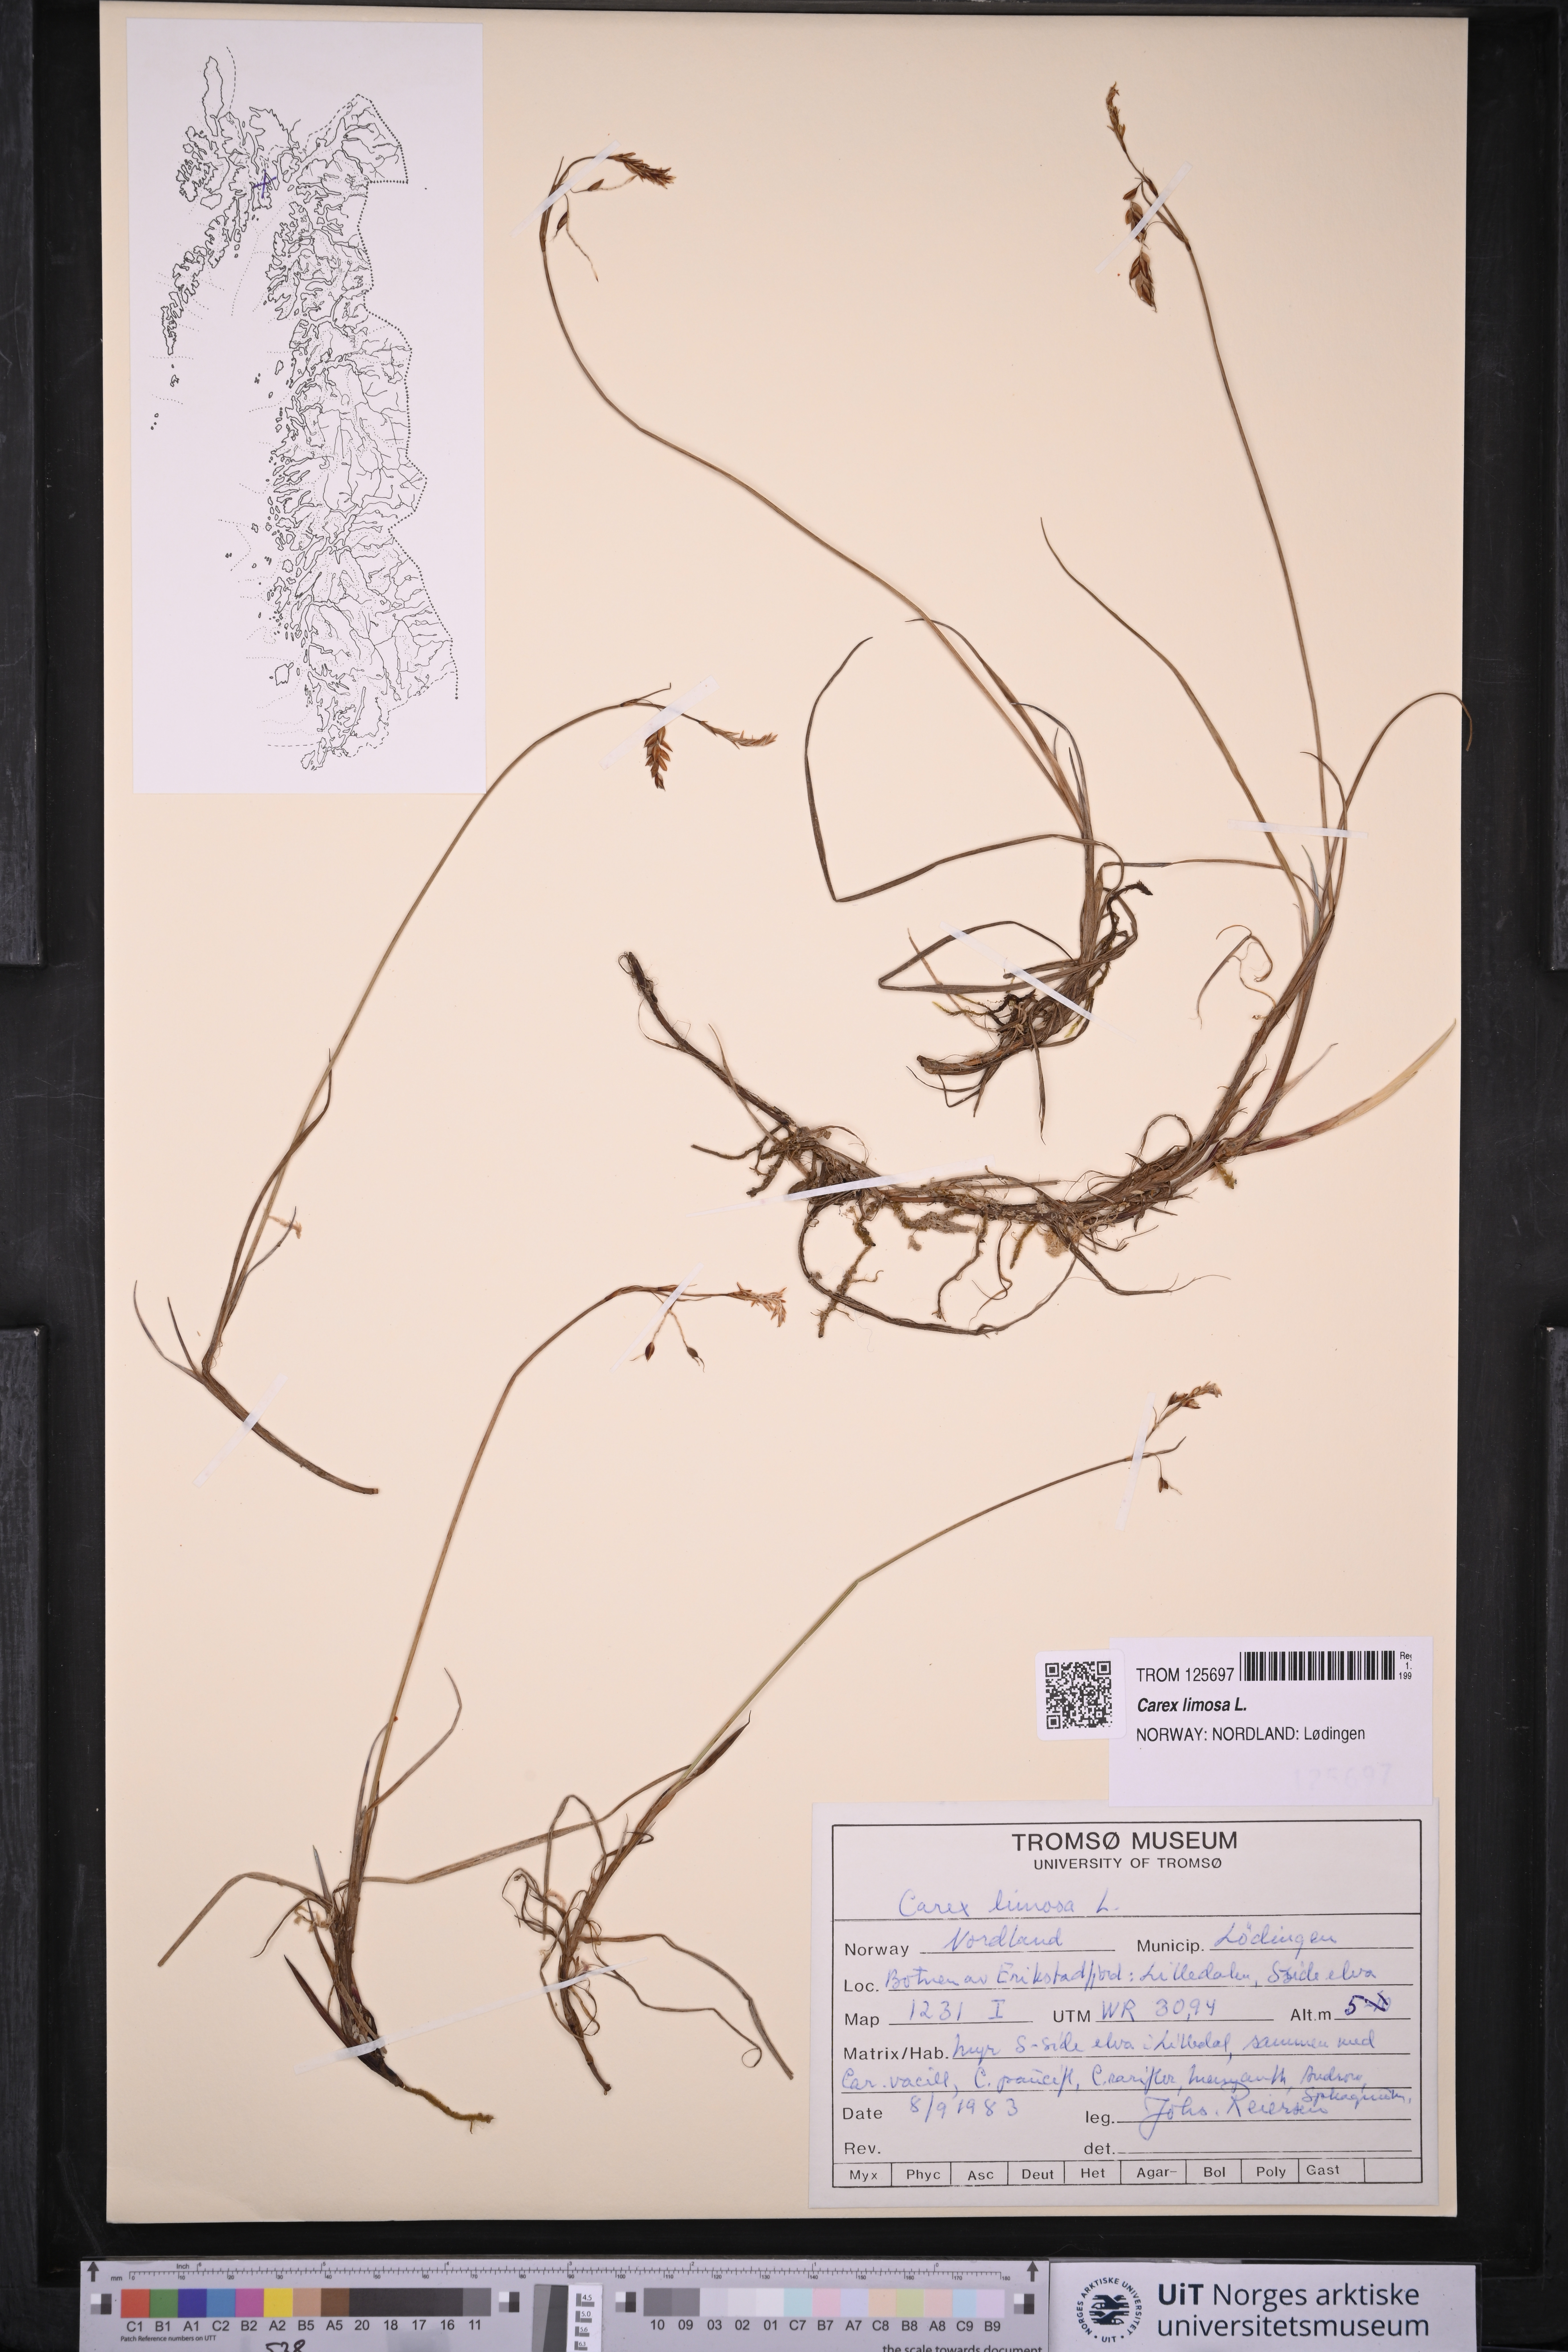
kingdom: Plantae
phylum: Tracheophyta
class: Liliopsida
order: Poales
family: Cyperaceae
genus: Carex
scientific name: Carex limosa
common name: Bog sedge
